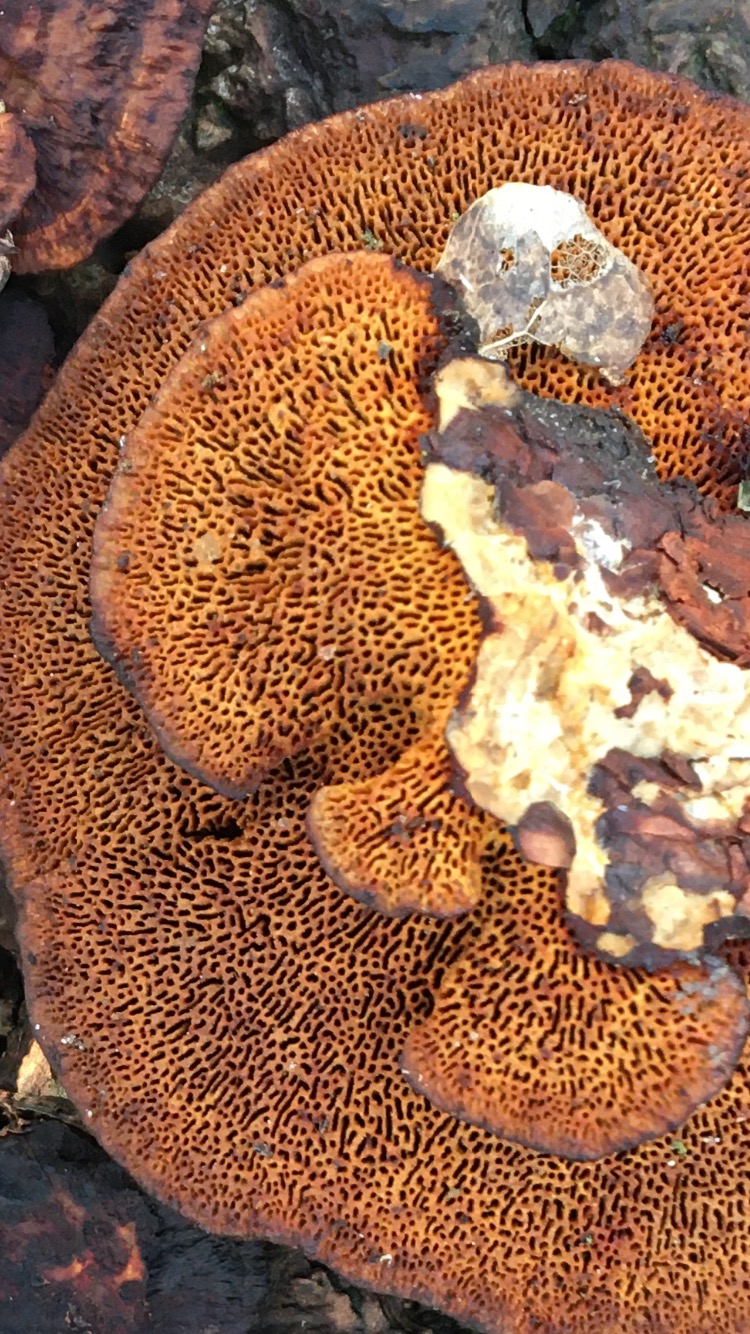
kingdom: Fungi
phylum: Basidiomycota
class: Agaricomycetes
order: Polyporales
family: Polyporaceae
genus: Daedaleopsis
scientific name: Daedaleopsis confragosa
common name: rødmende læderporesvamp
